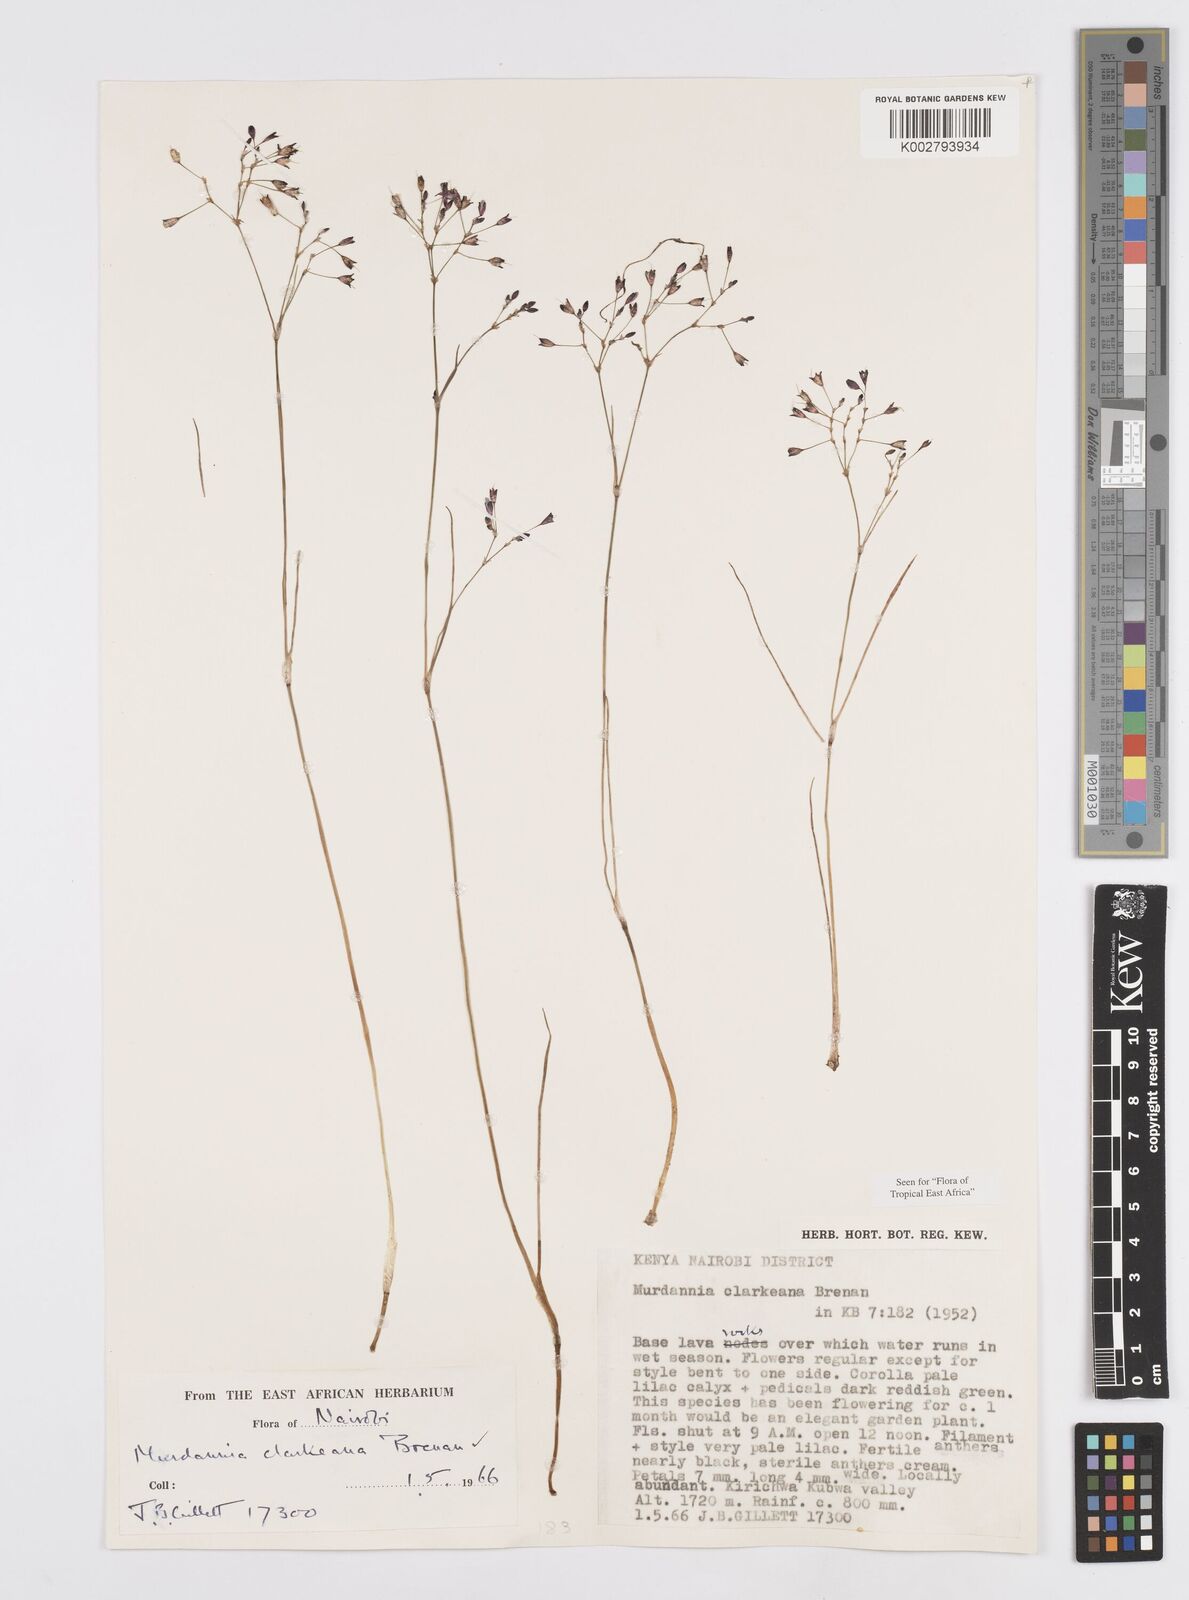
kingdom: Plantae
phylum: Tracheophyta
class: Liliopsida
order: Commelinales
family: Commelinaceae
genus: Murdannia
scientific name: Murdannia clarkeana
